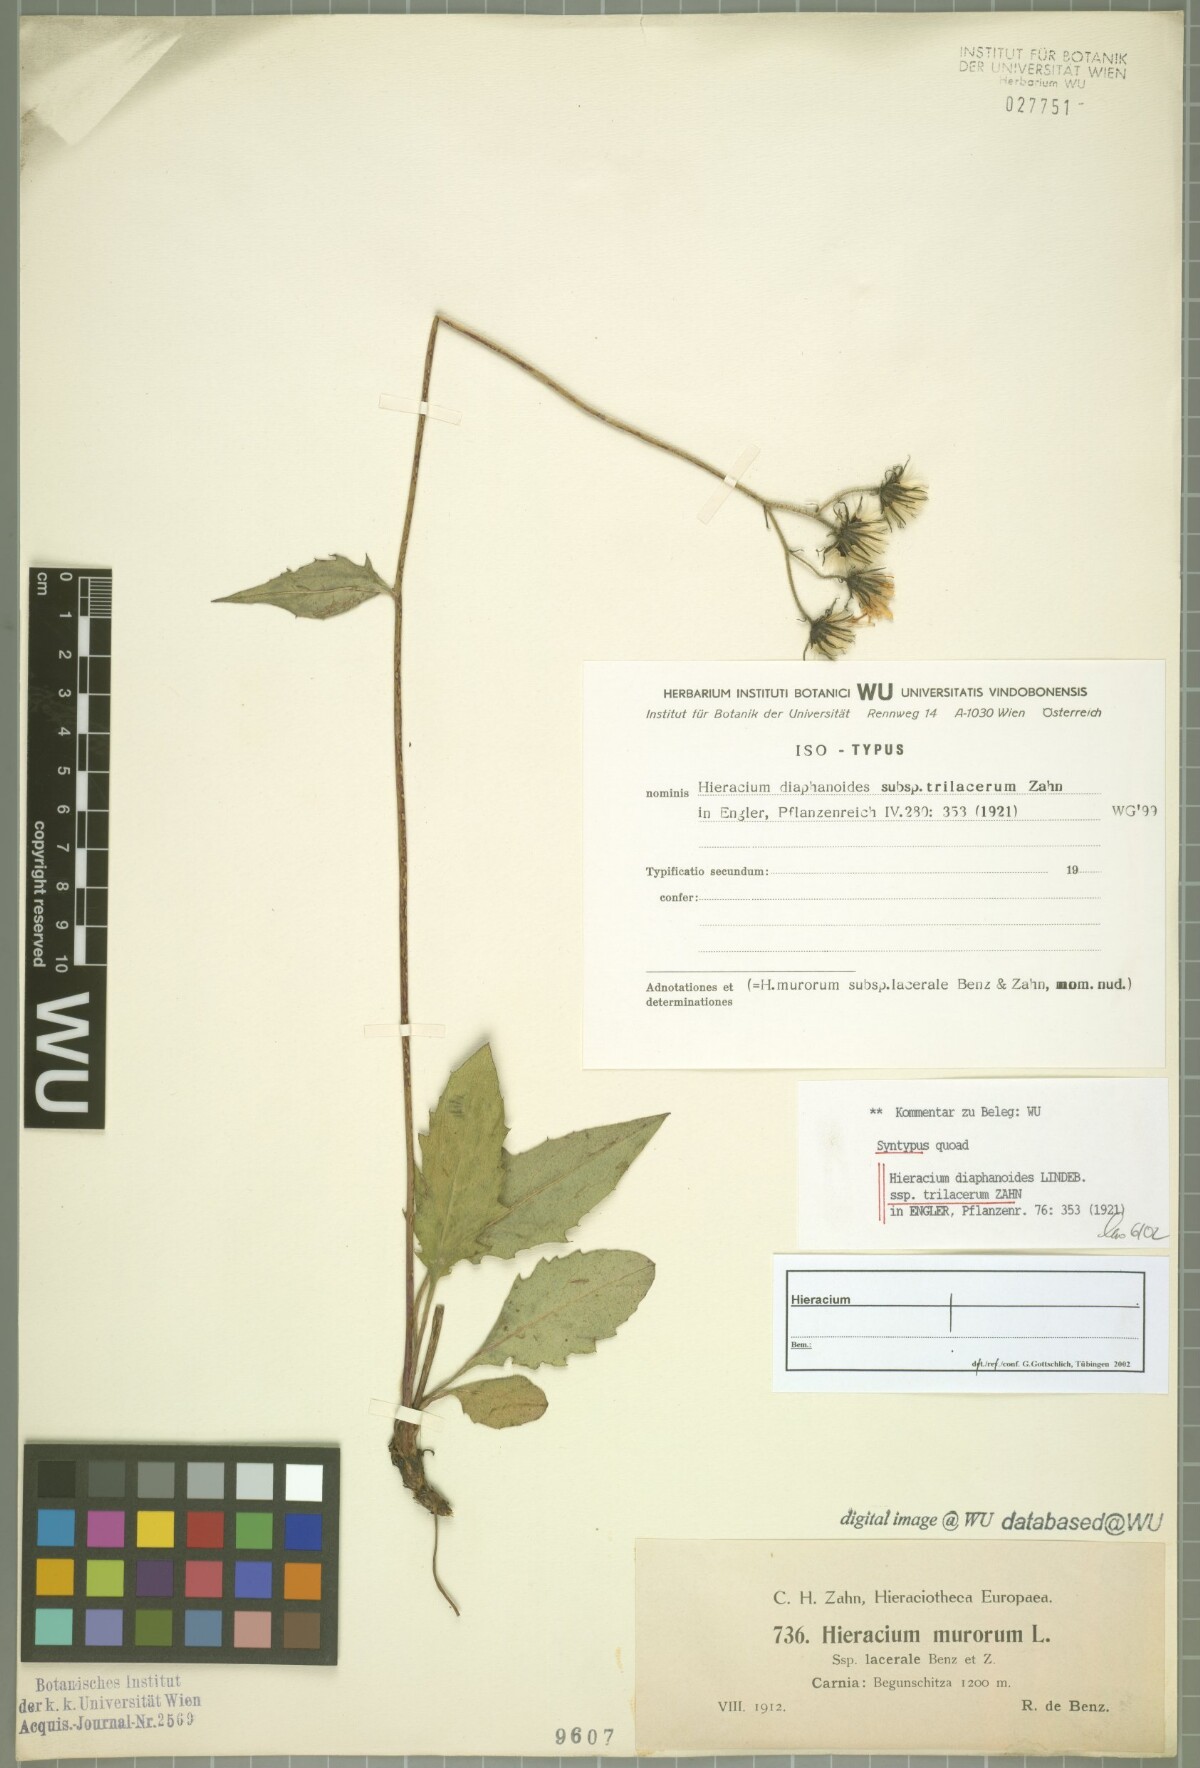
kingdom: Plantae
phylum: Tracheophyta
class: Magnoliopsida
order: Asterales
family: Asteraceae
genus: Hieracium
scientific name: Hieracium diaphanoides
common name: Fine-bracted hawkweed
